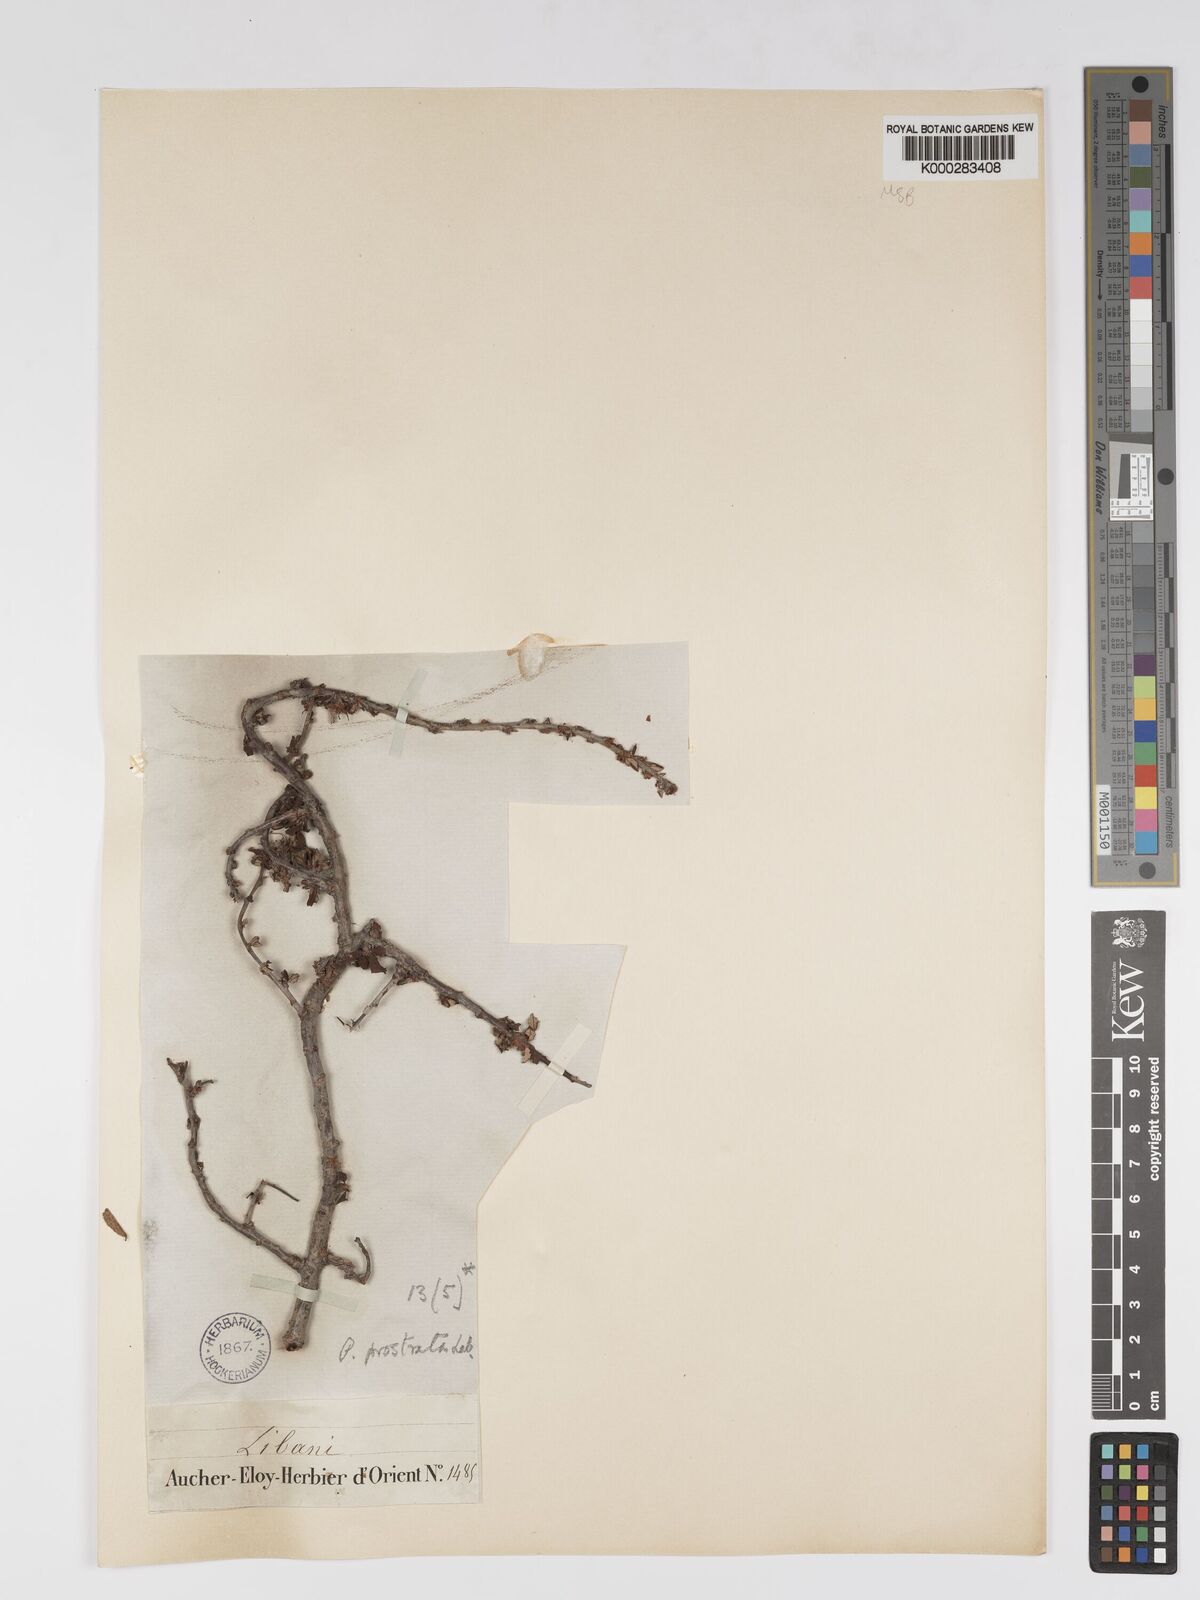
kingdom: Plantae
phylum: Tracheophyta
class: Magnoliopsida
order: Rosales
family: Rosaceae
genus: Prunus
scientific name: Prunus prostrata
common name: Mountain cherry
